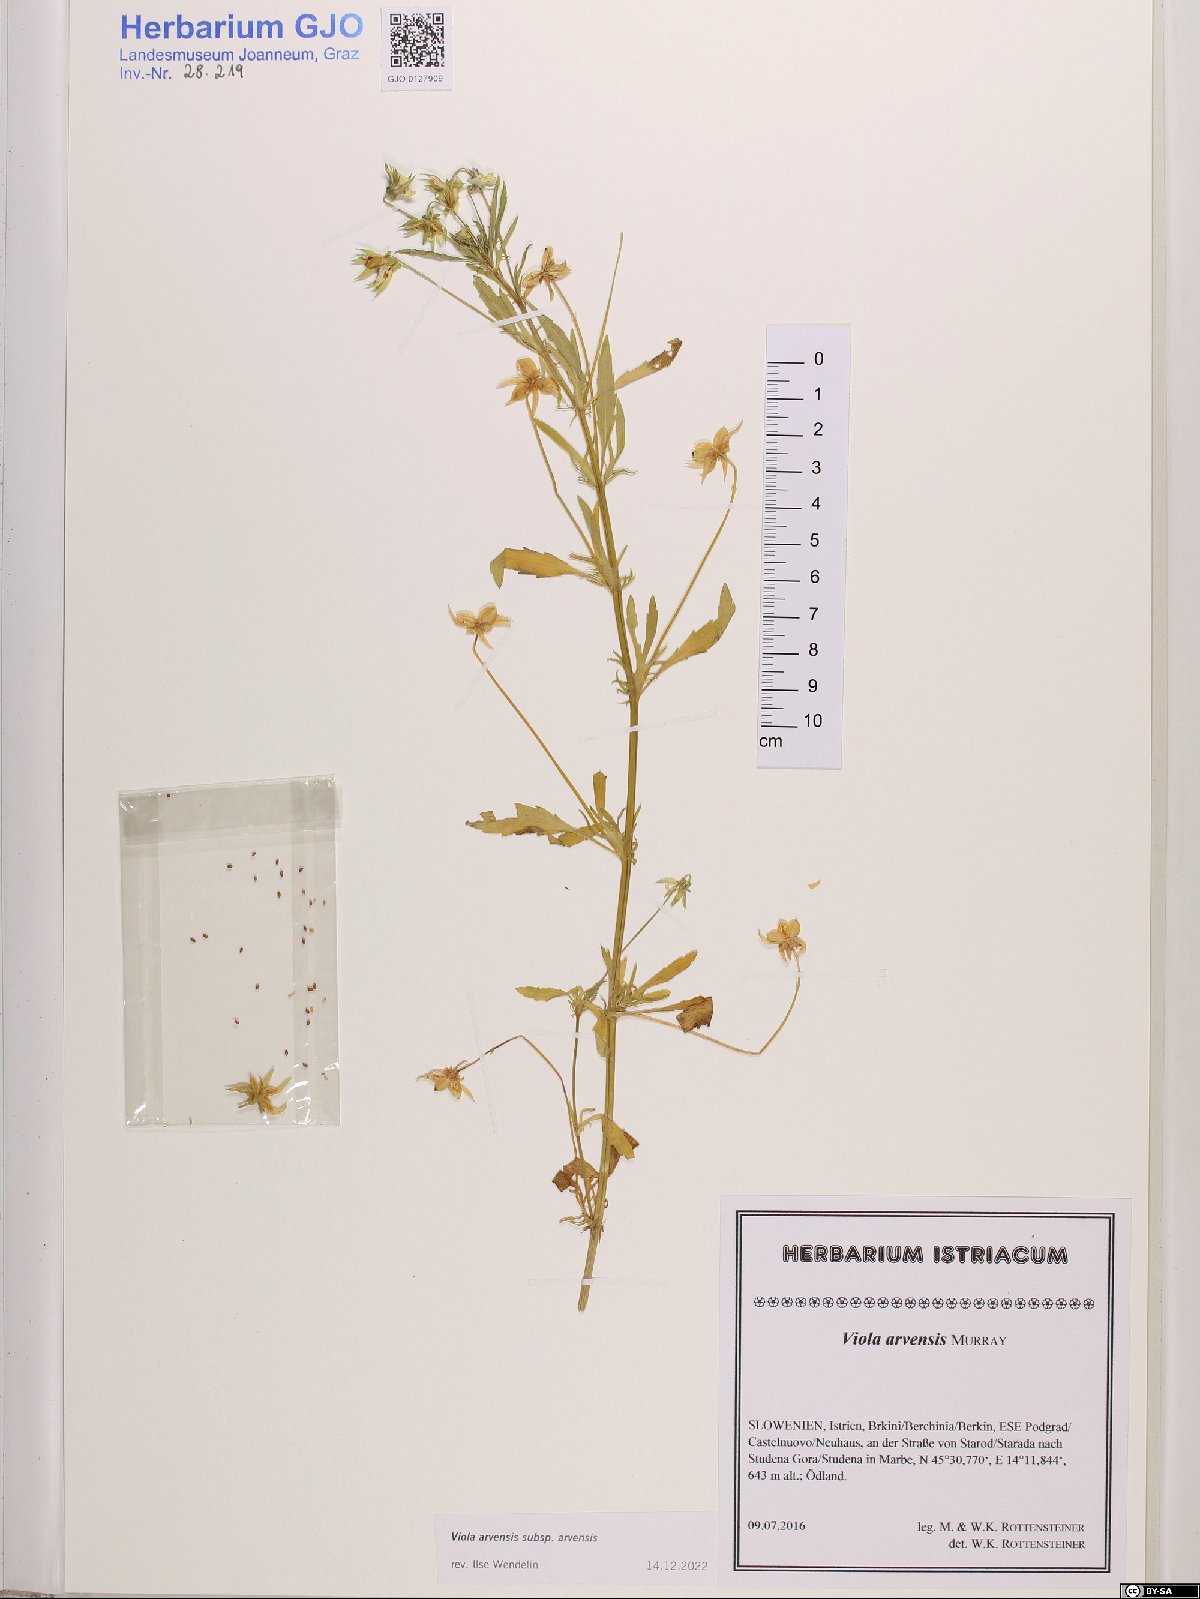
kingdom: Plantae
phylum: Tracheophyta
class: Magnoliopsida
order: Malpighiales
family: Violaceae
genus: Viola
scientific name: Viola arvensis
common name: Field pansy
